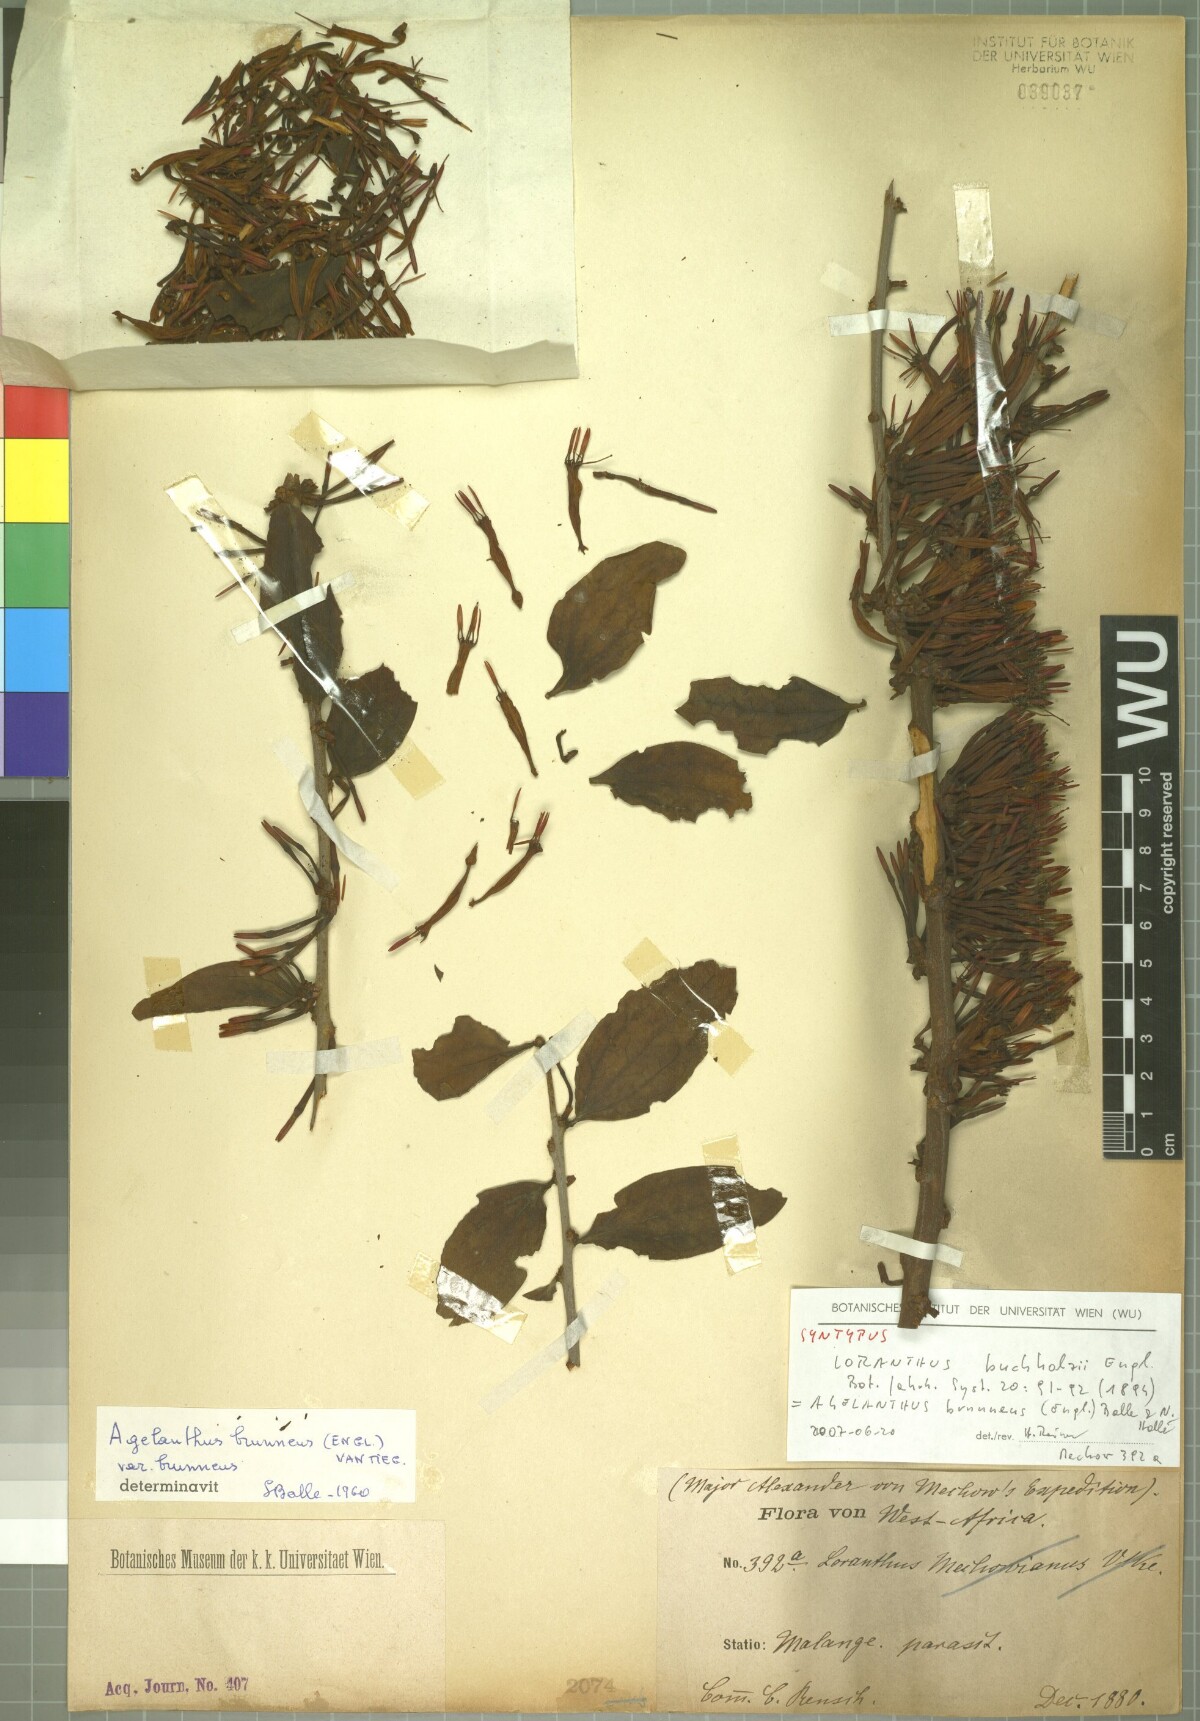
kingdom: Plantae
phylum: Tracheophyta
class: Magnoliopsida
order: Santalales
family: Loranthaceae
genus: Agelanthus
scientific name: Agelanthus brunneus
